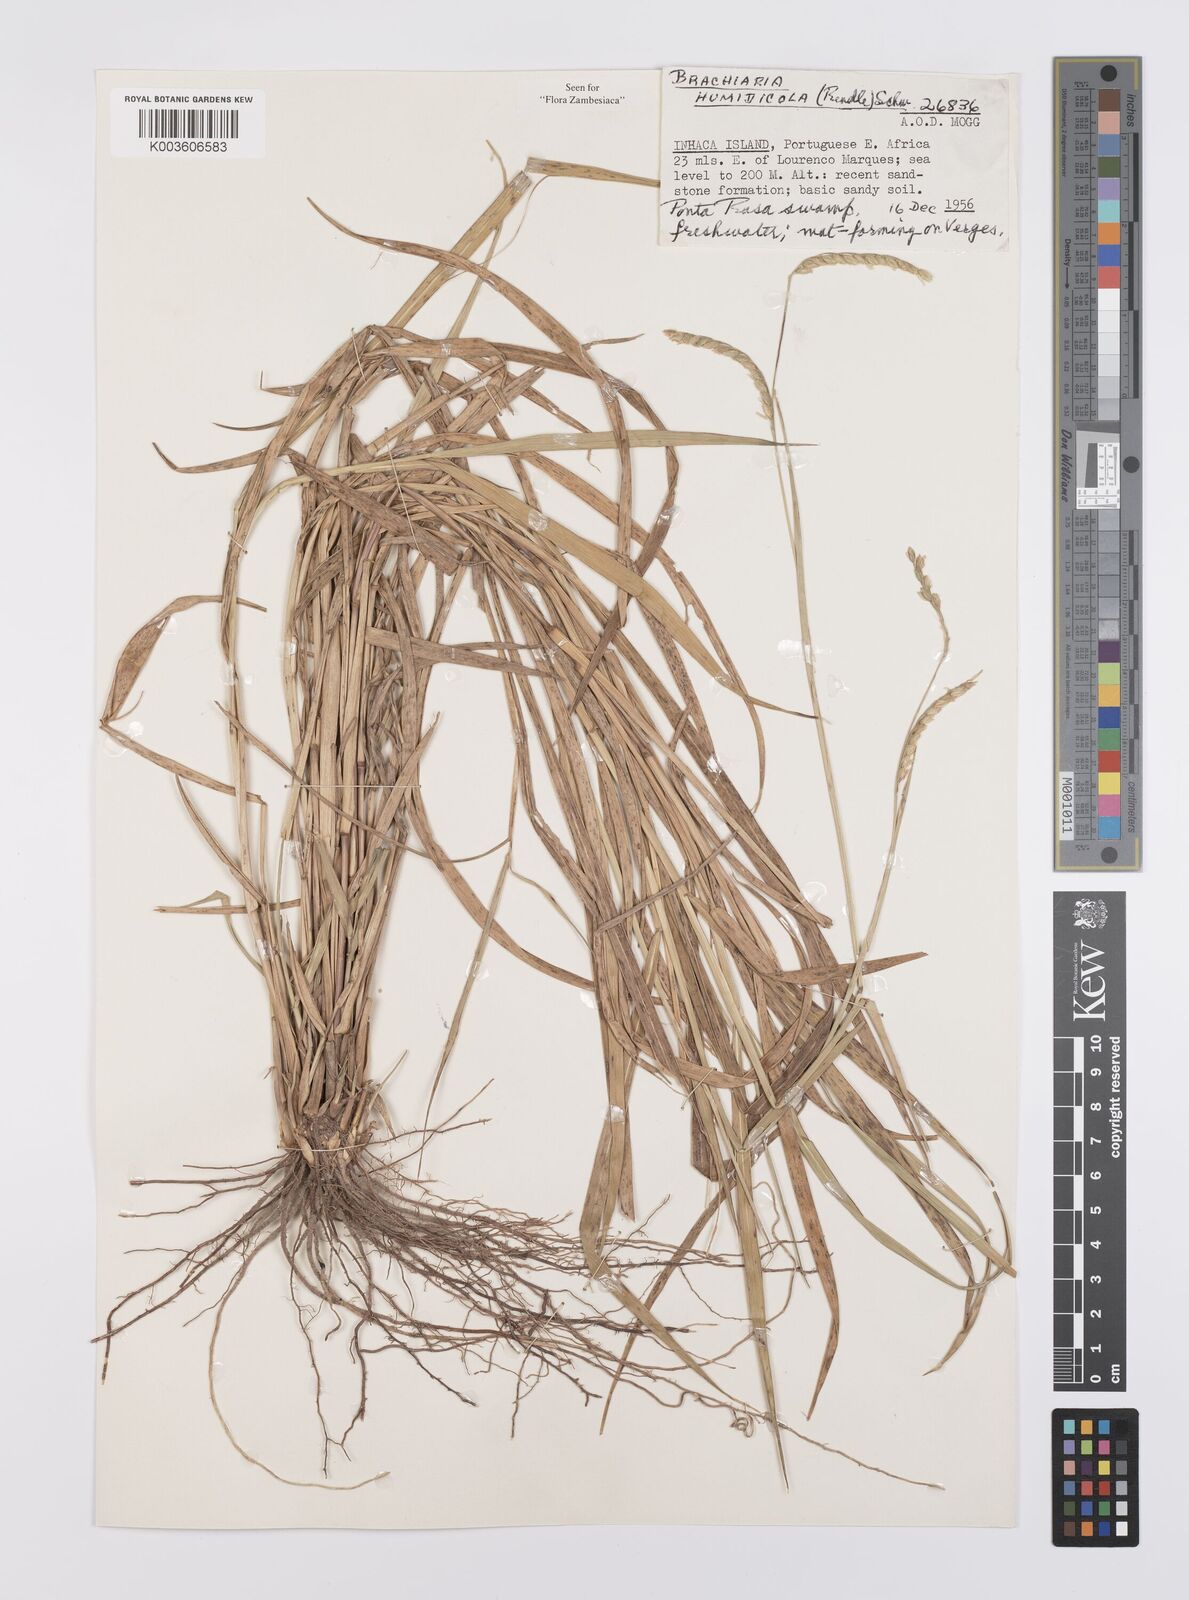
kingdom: Plantae
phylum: Tracheophyta
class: Liliopsida
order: Poales
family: Poaceae
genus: Urochloa
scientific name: Urochloa dictyoneura
